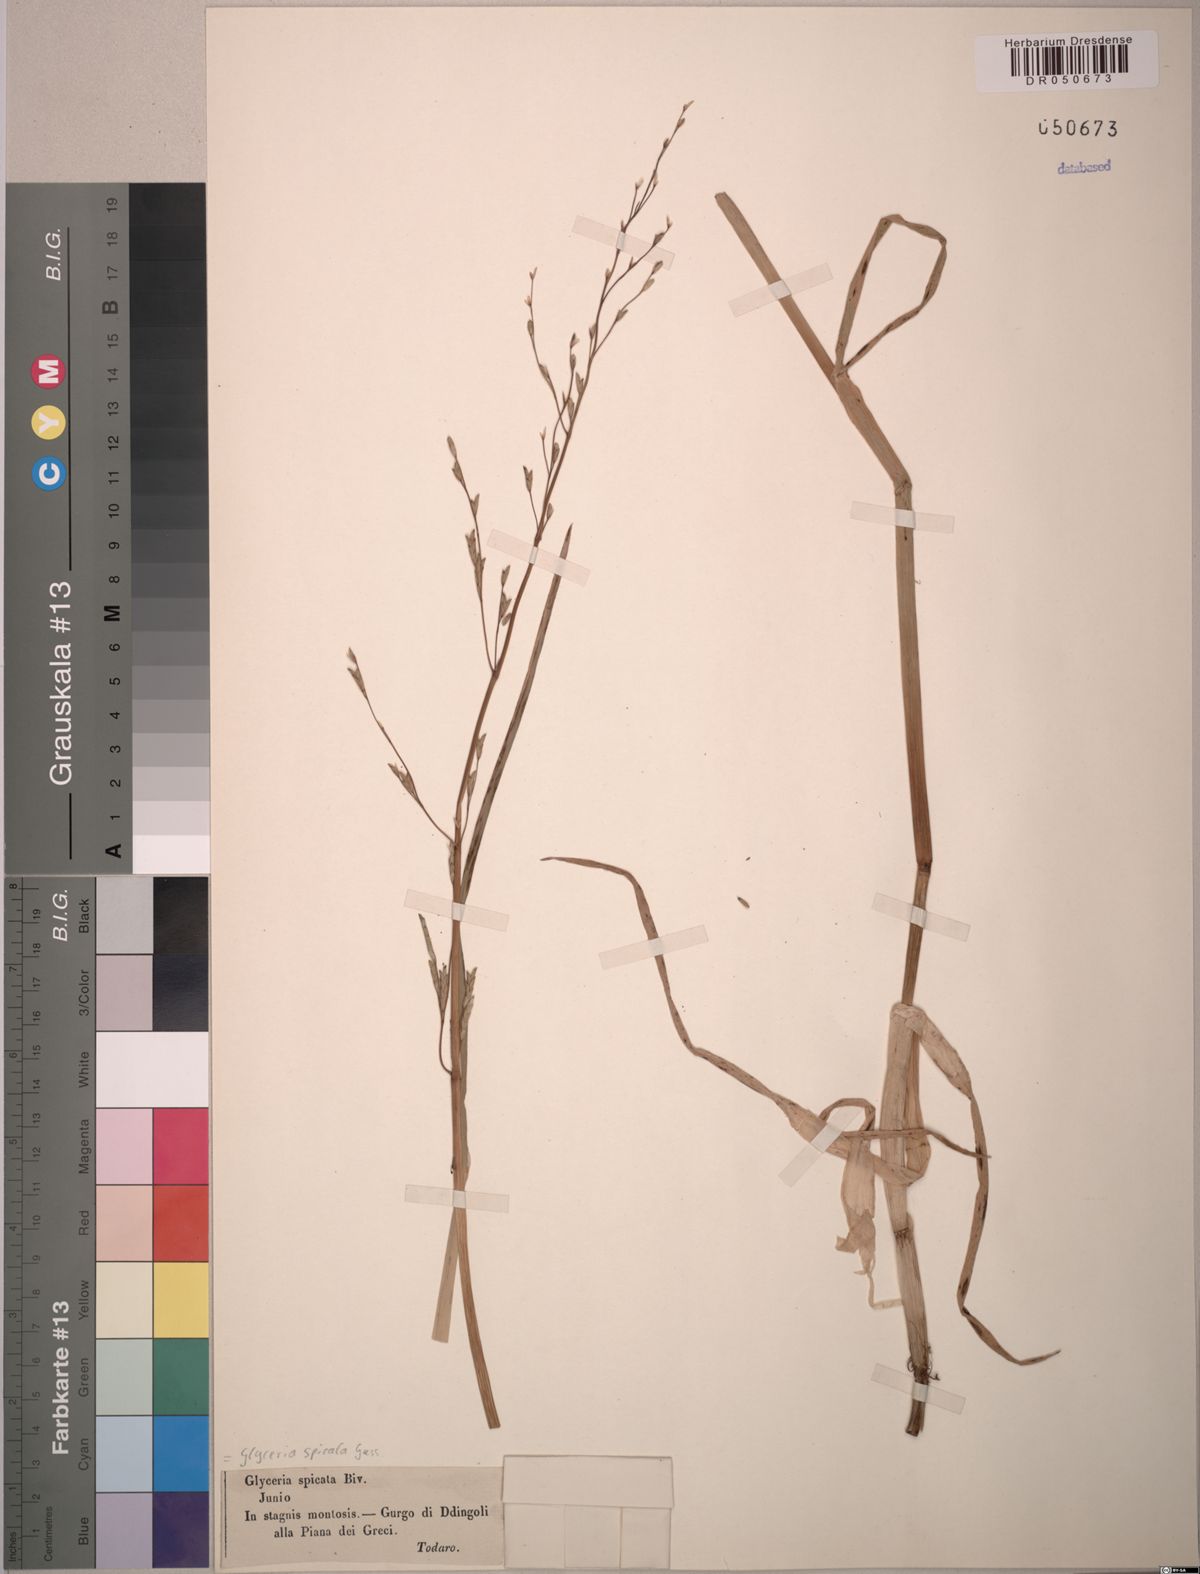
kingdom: Plantae
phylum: Tracheophyta
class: Liliopsida
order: Poales
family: Poaceae
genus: Glyceria
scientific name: Glyceria spicata
